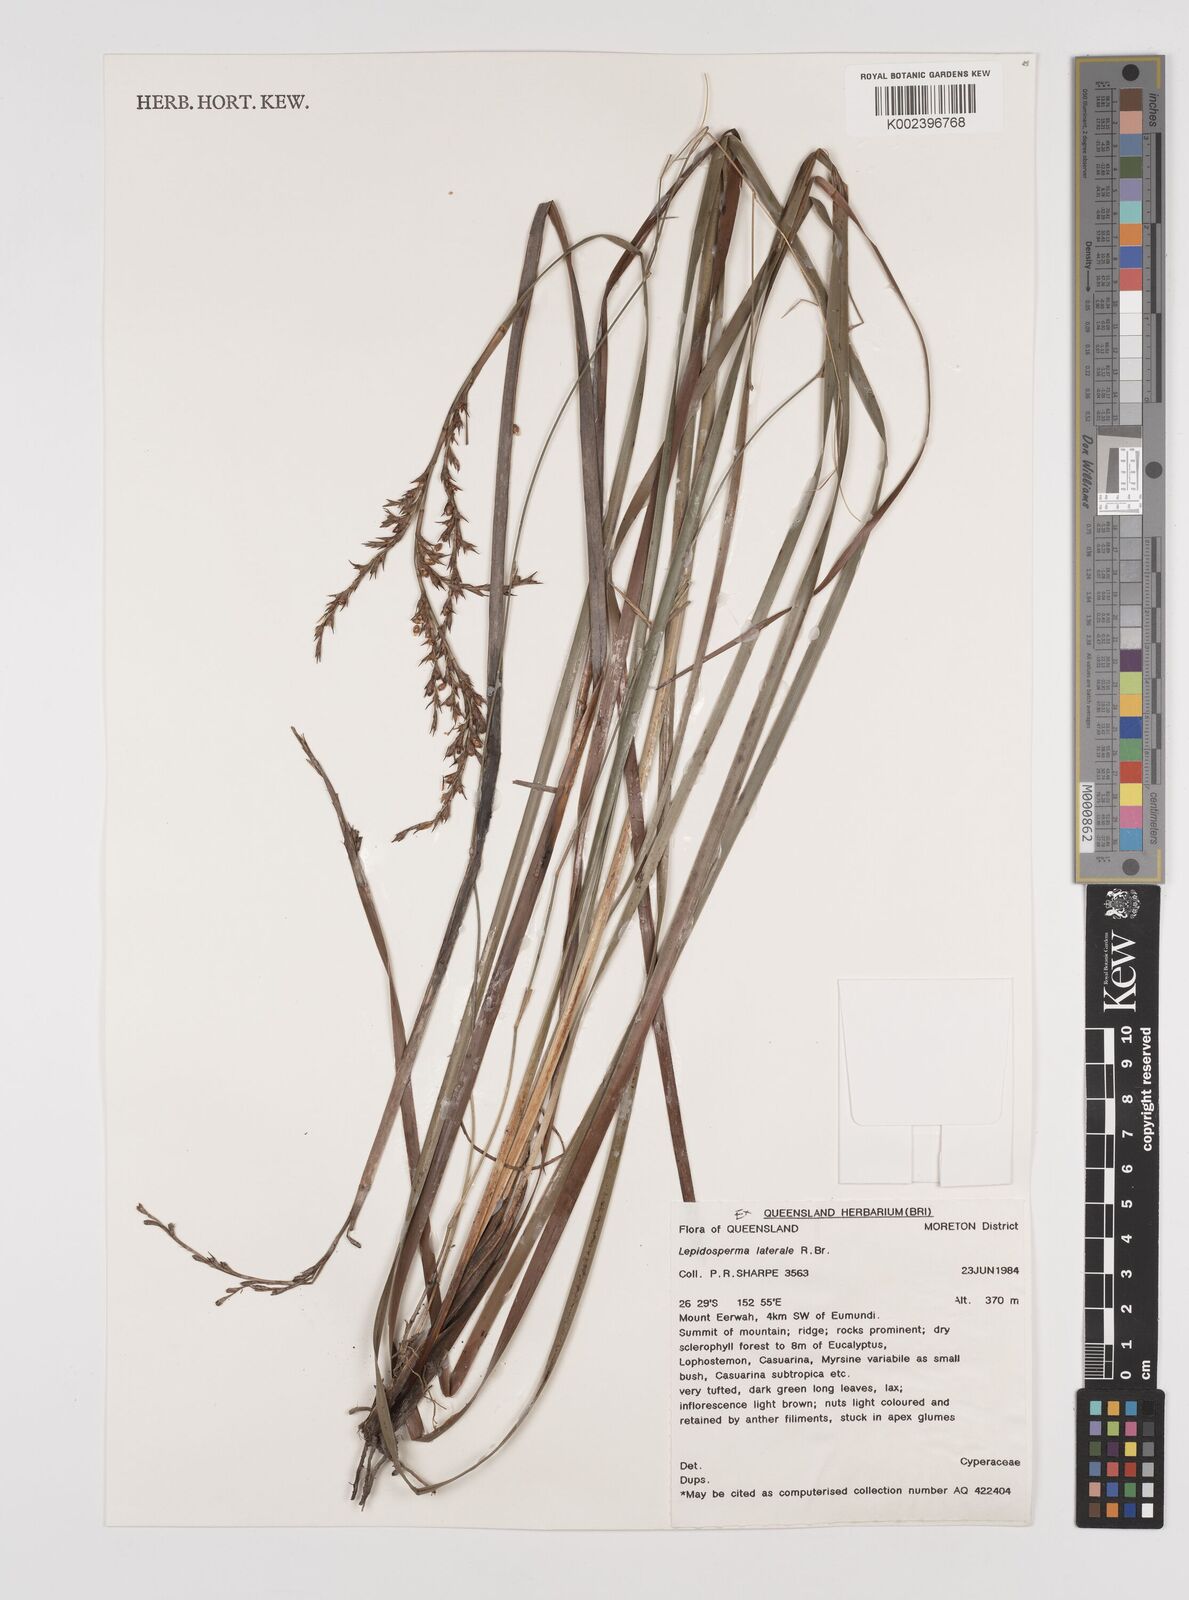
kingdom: Plantae
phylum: Tracheophyta
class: Liliopsida
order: Poales
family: Cyperaceae
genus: Lepidosperma
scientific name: Lepidosperma laterale
